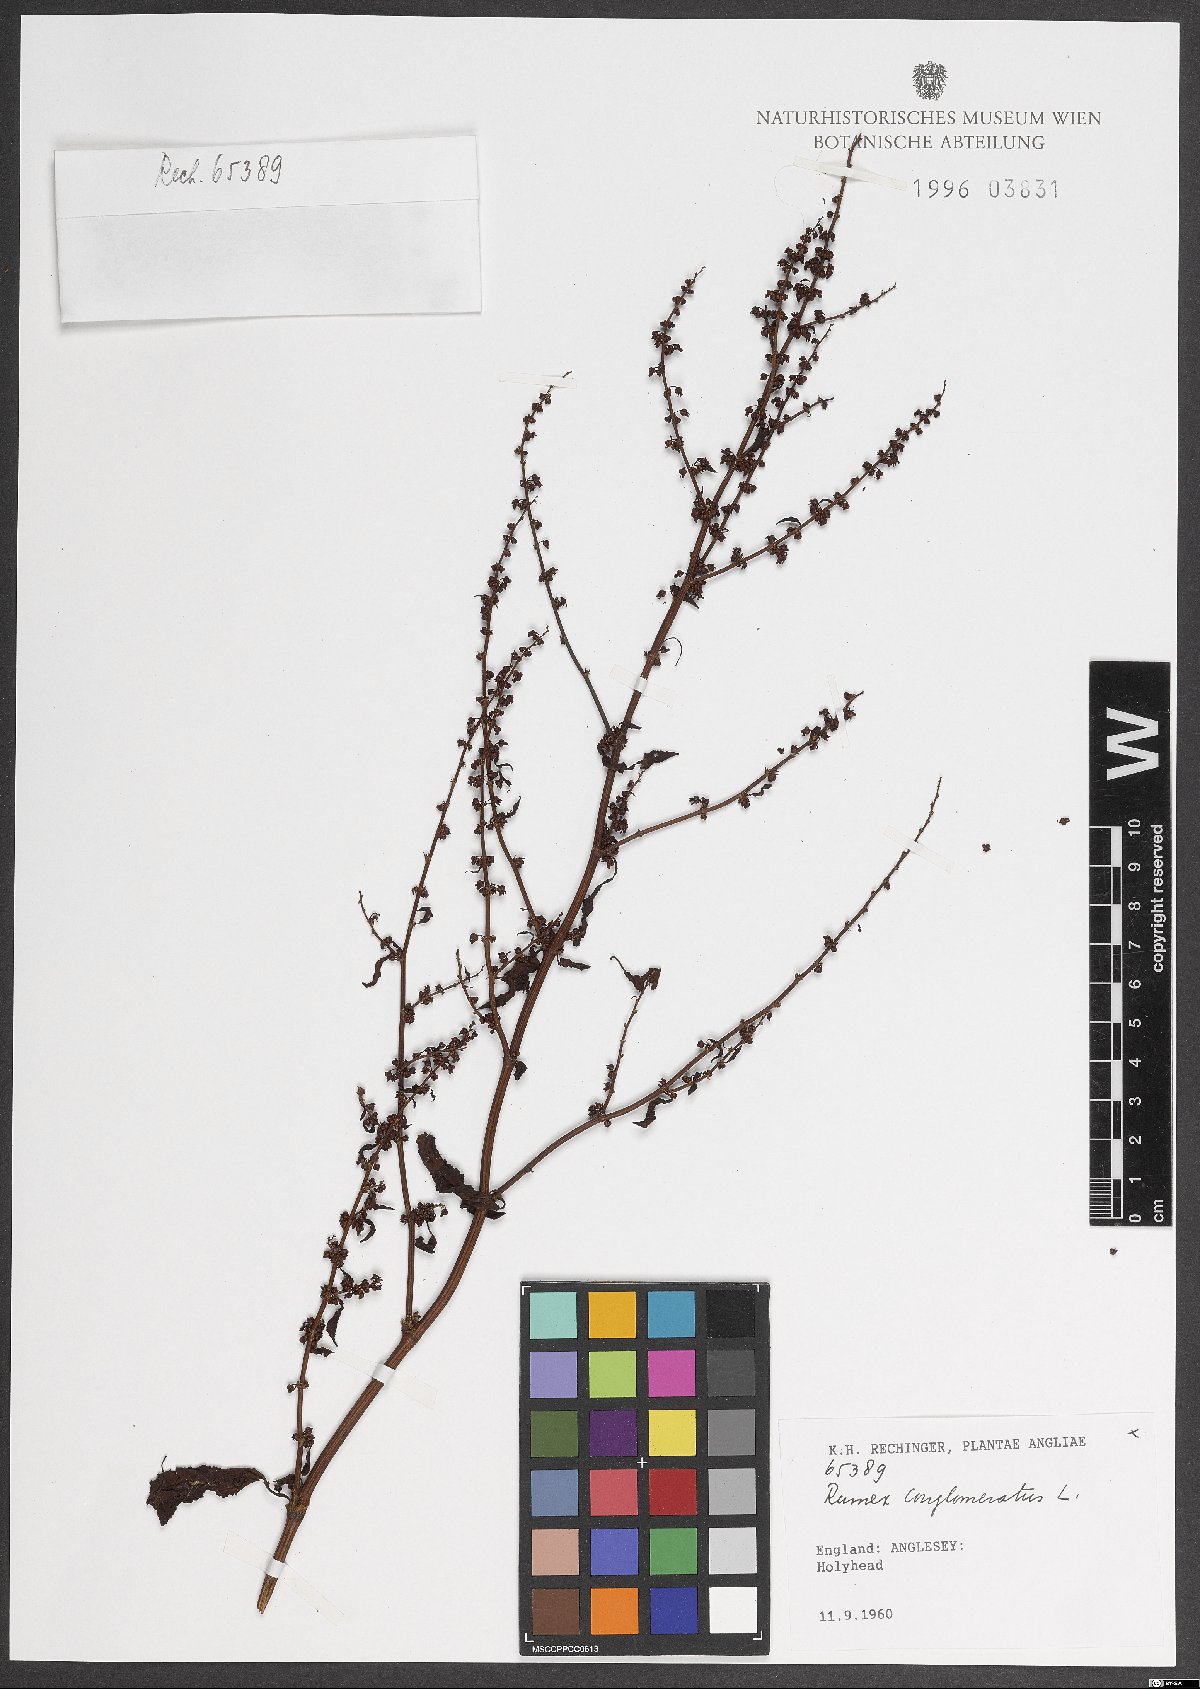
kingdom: Plantae
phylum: Tracheophyta
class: Magnoliopsida
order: Caryophyllales
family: Polygonaceae
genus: Rumex
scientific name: Rumex conglomeratus
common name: Clustered dock
